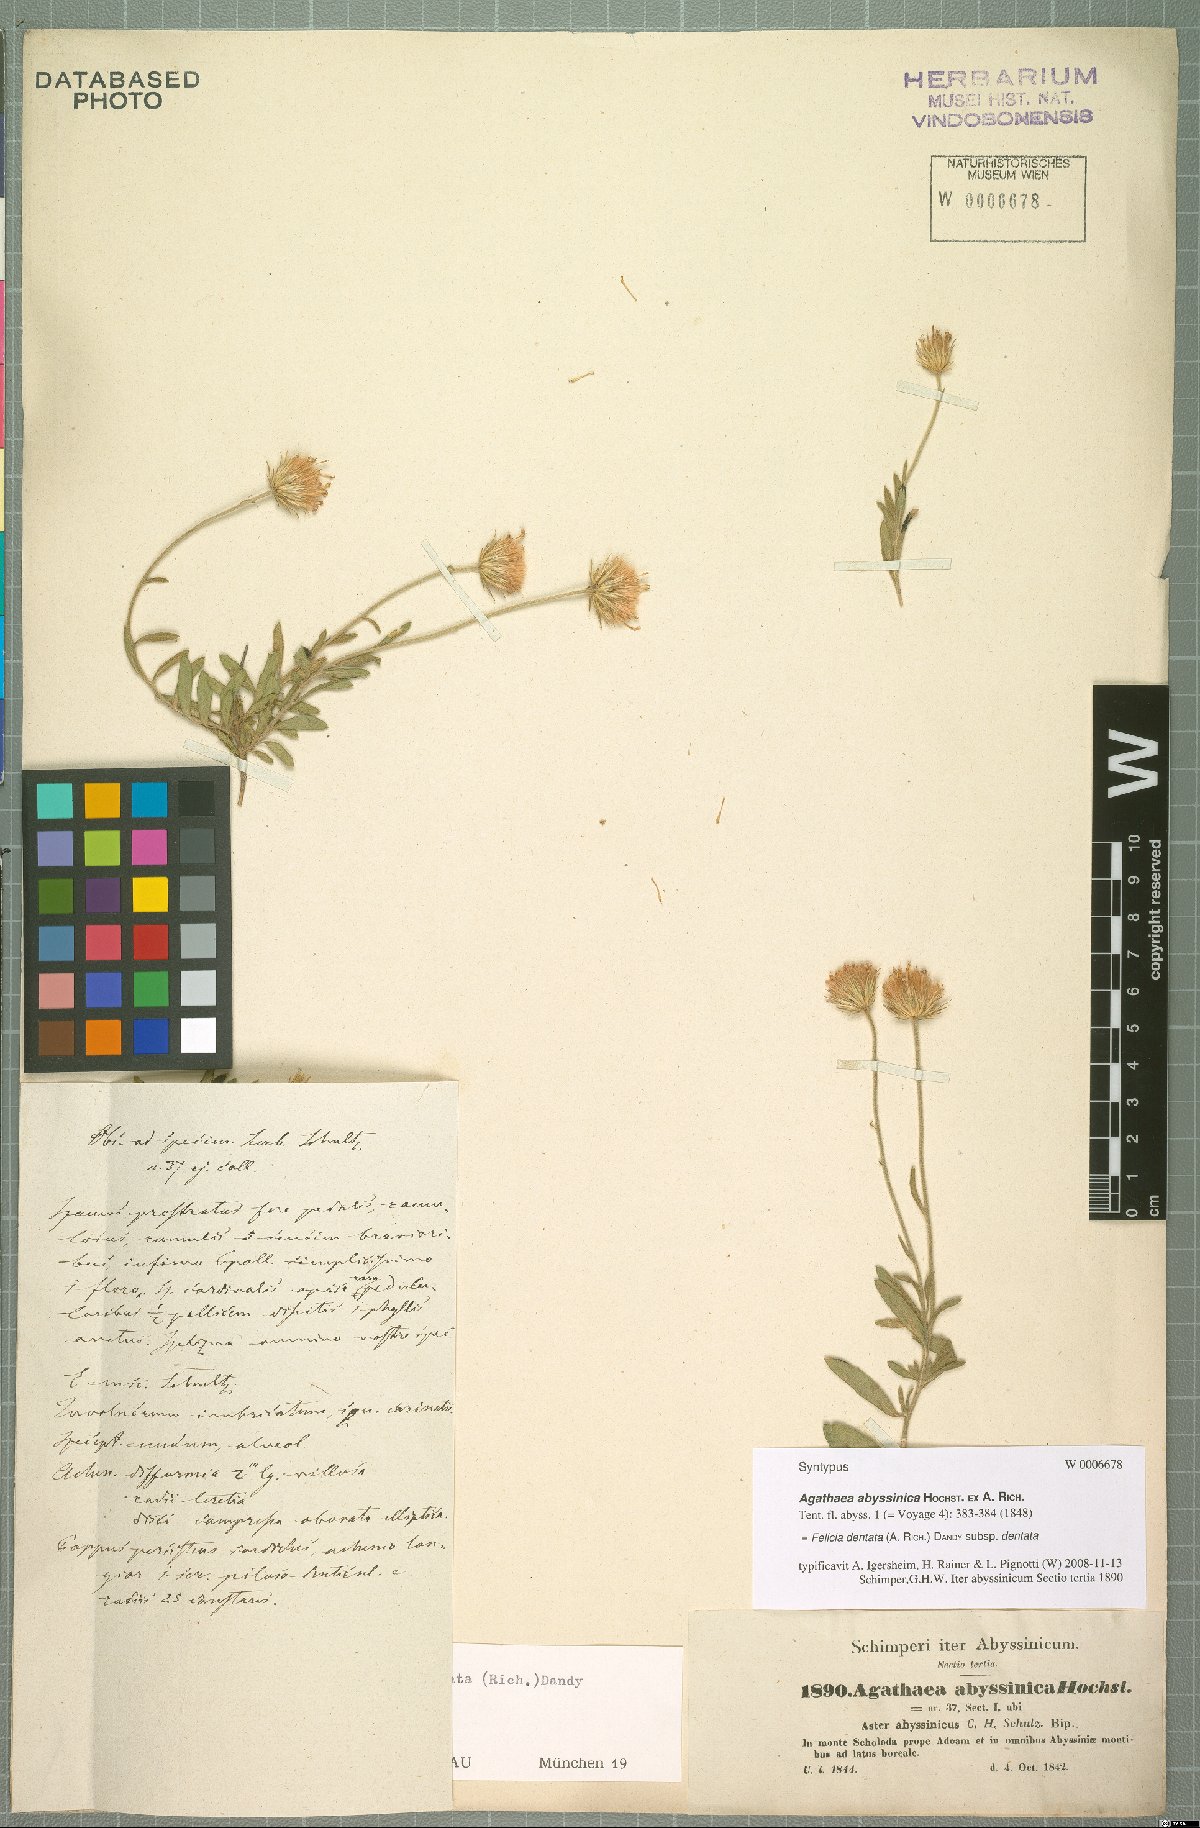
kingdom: Plantae
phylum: Tracheophyta
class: Magnoliopsida
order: Asterales
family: Asteraceae
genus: Felicia
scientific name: Felicia dentata
